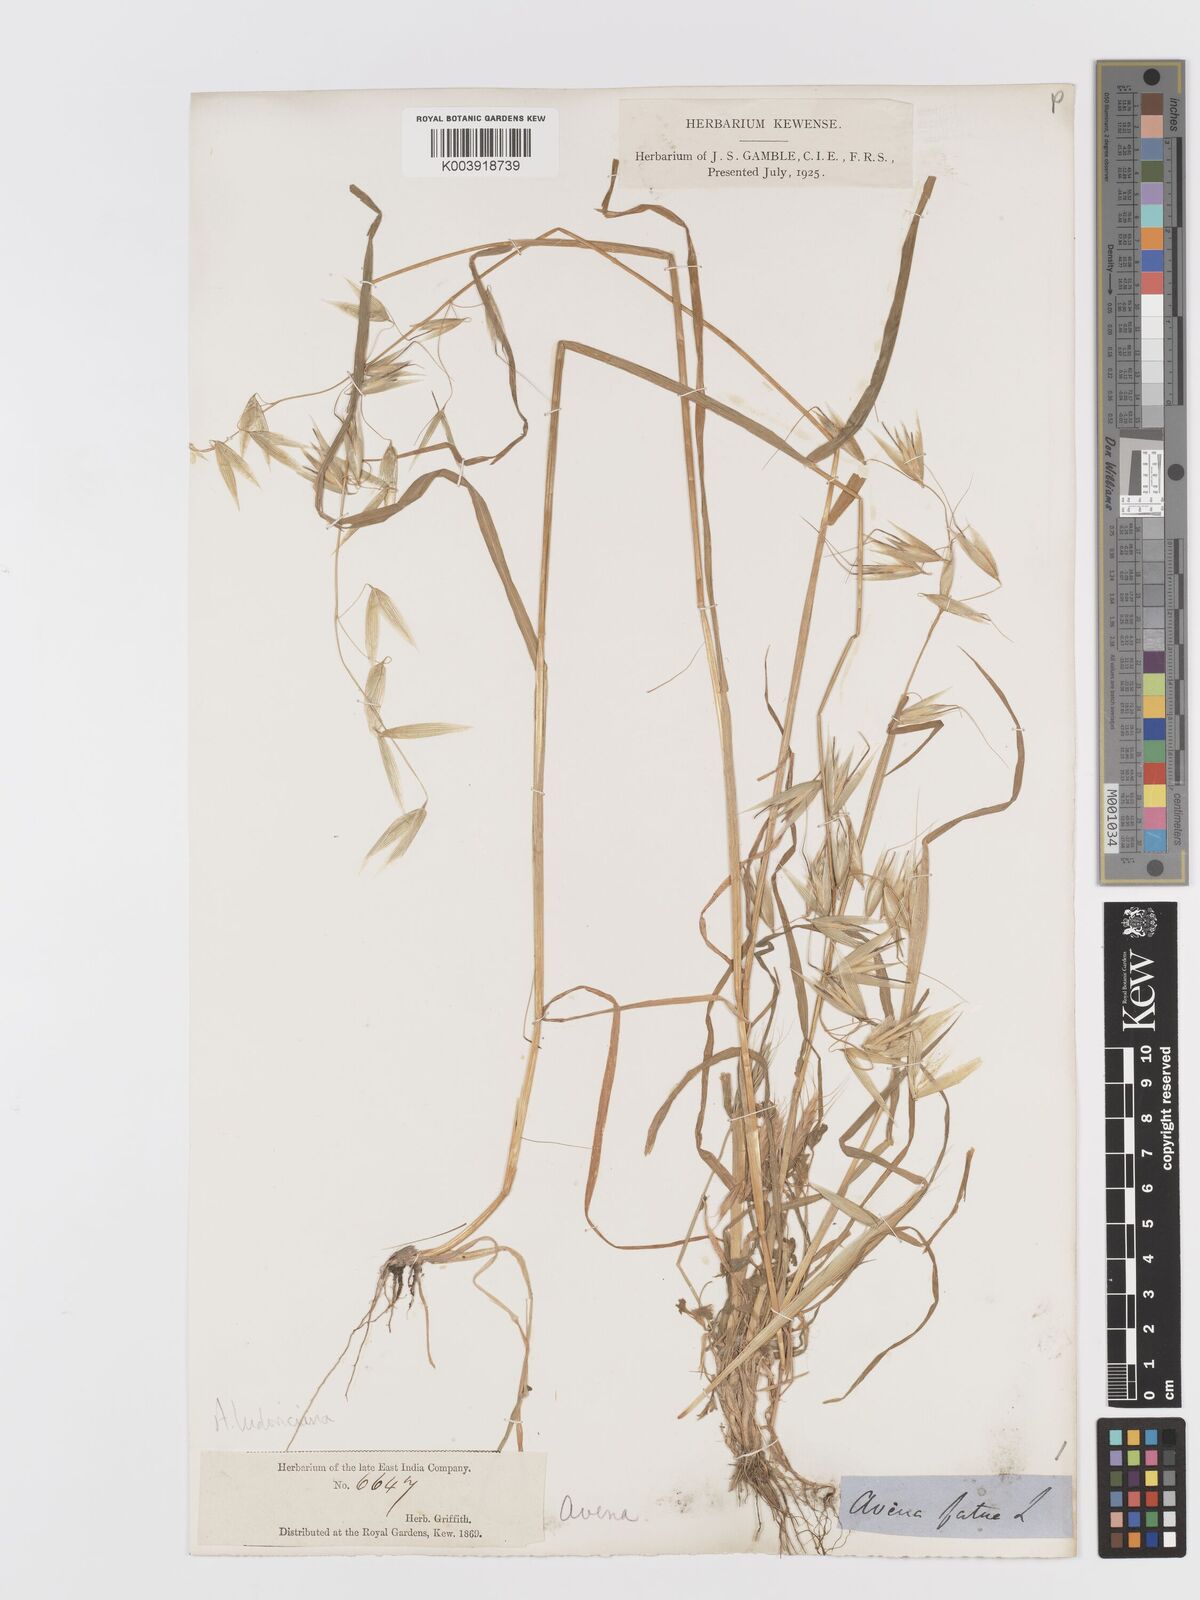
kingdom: Plantae
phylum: Tracheophyta
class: Liliopsida
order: Poales
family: Poaceae
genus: Avena
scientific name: Avena sterilis
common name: Animated oat
